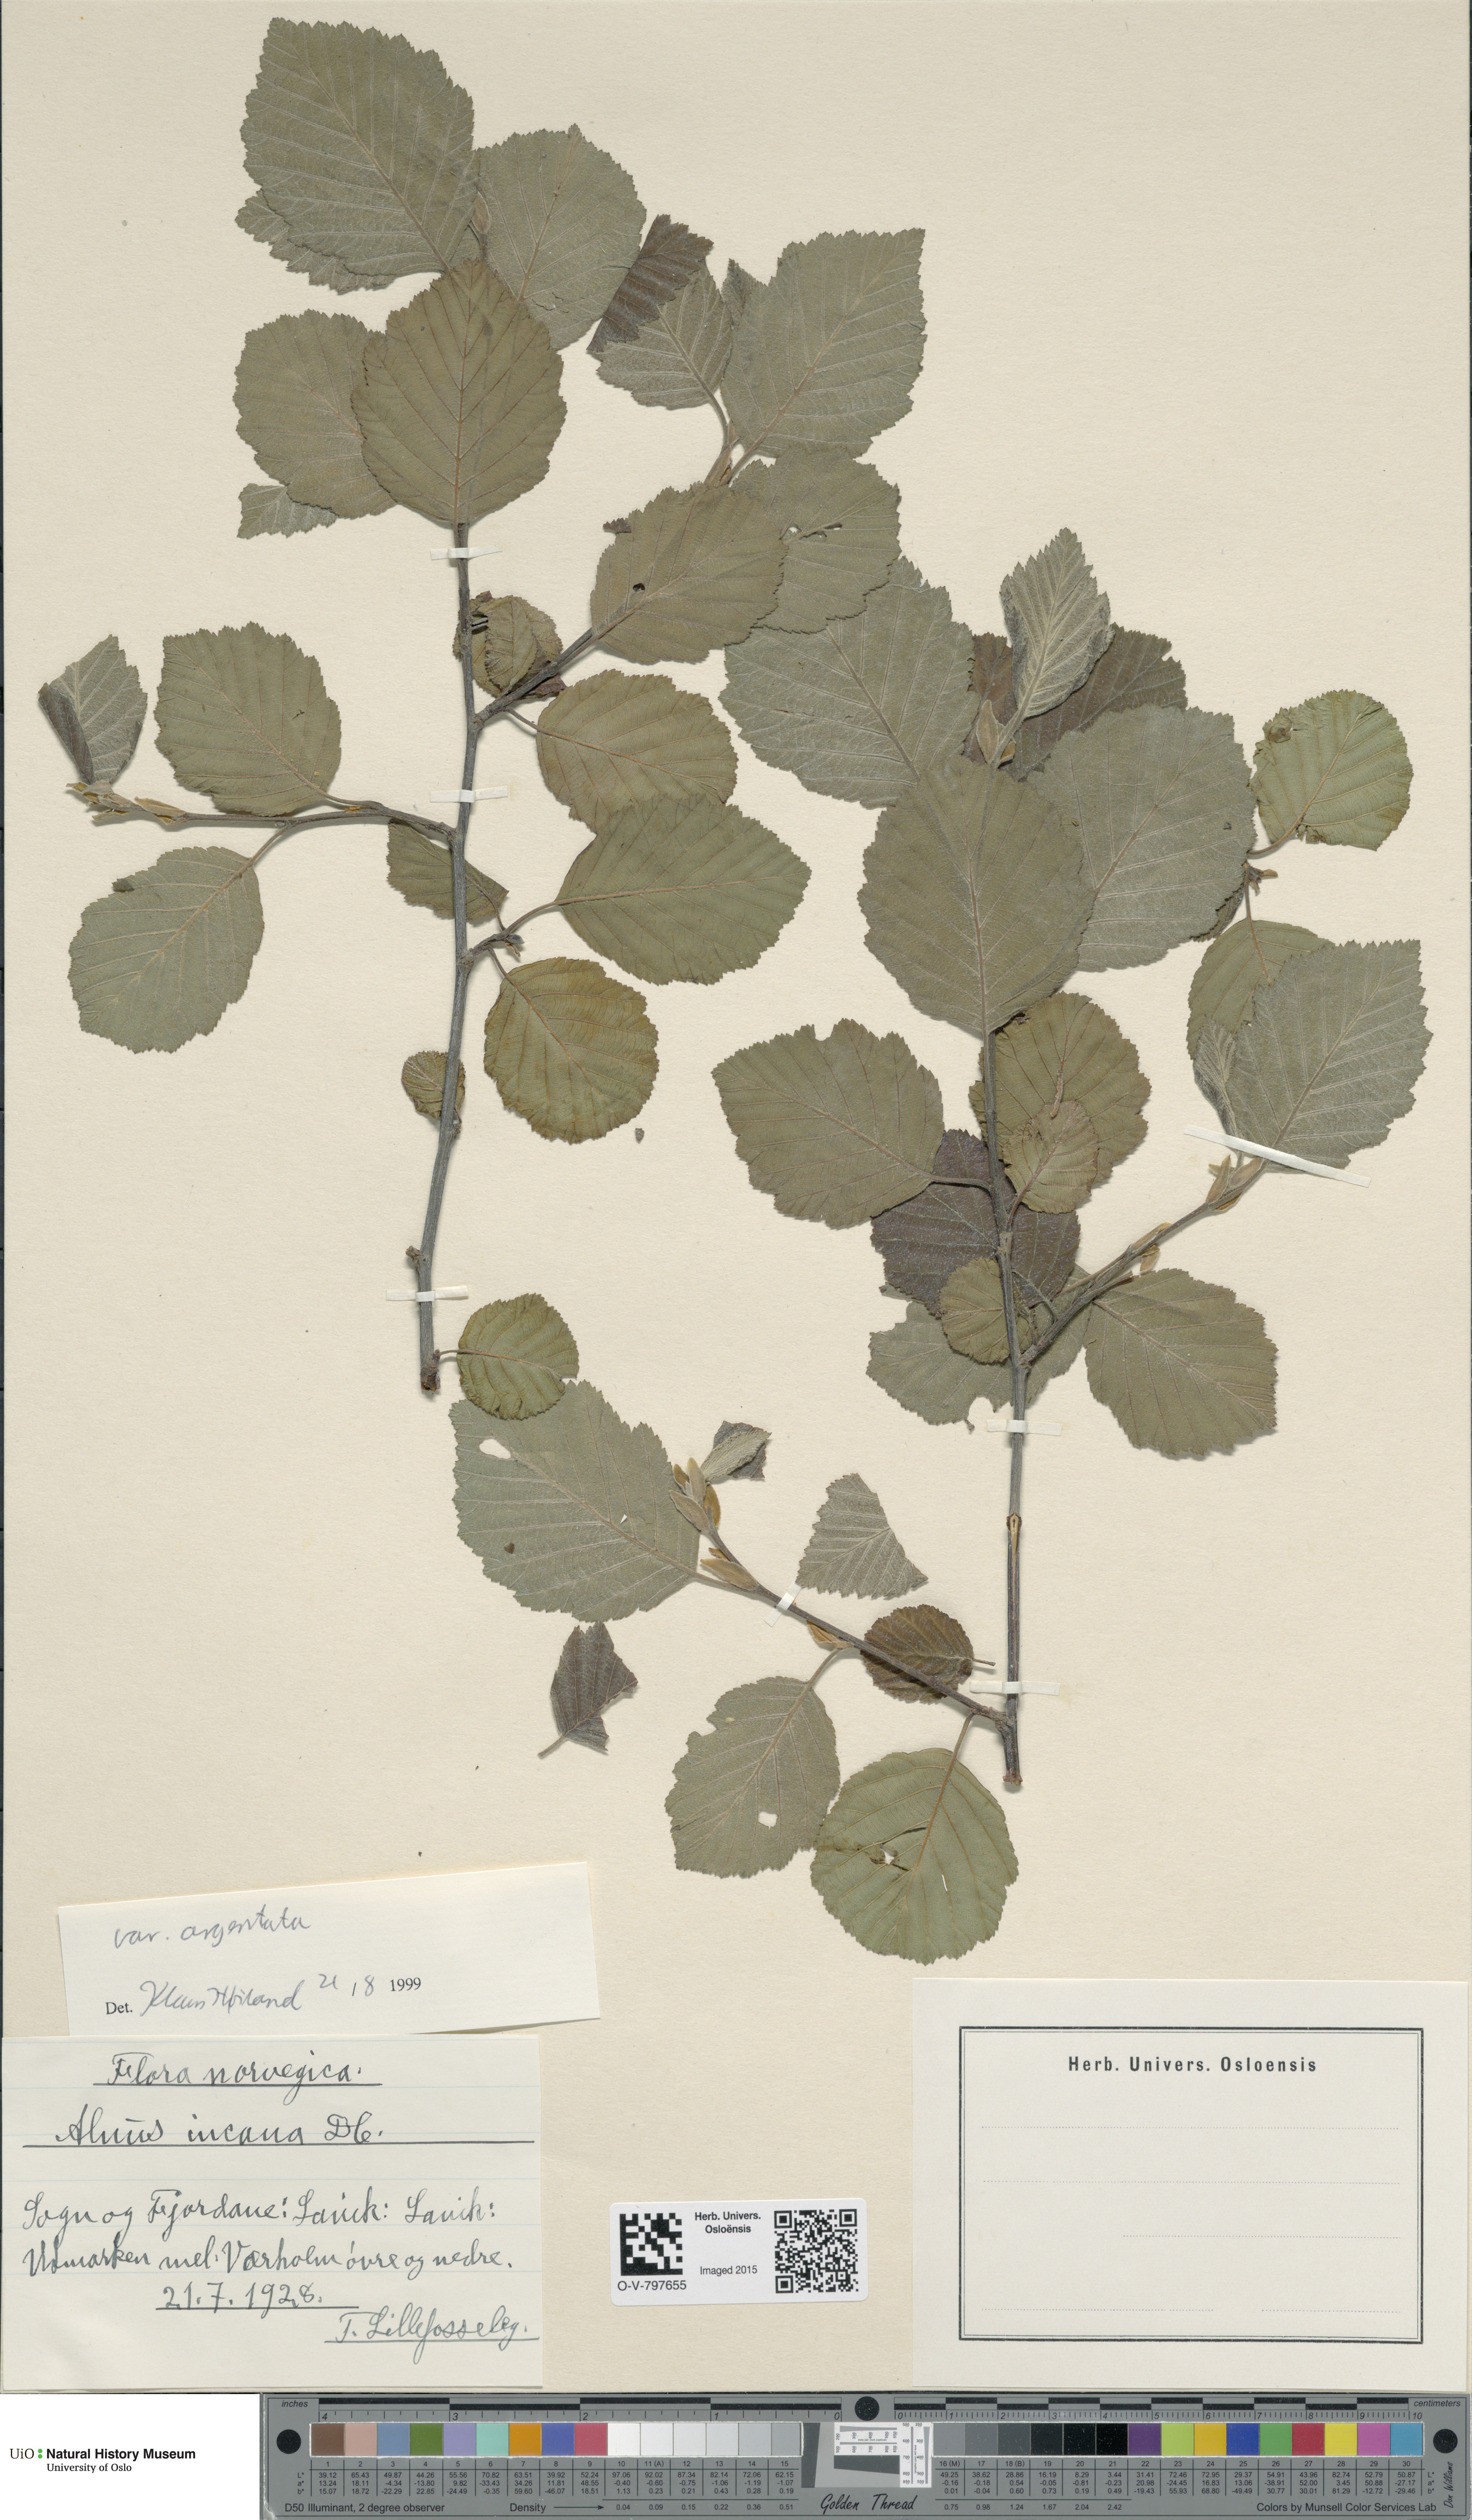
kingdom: Plantae
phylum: Tracheophyta
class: Magnoliopsida
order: Fagales
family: Betulaceae
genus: Alnus
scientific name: Alnus incana
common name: Grey alder
